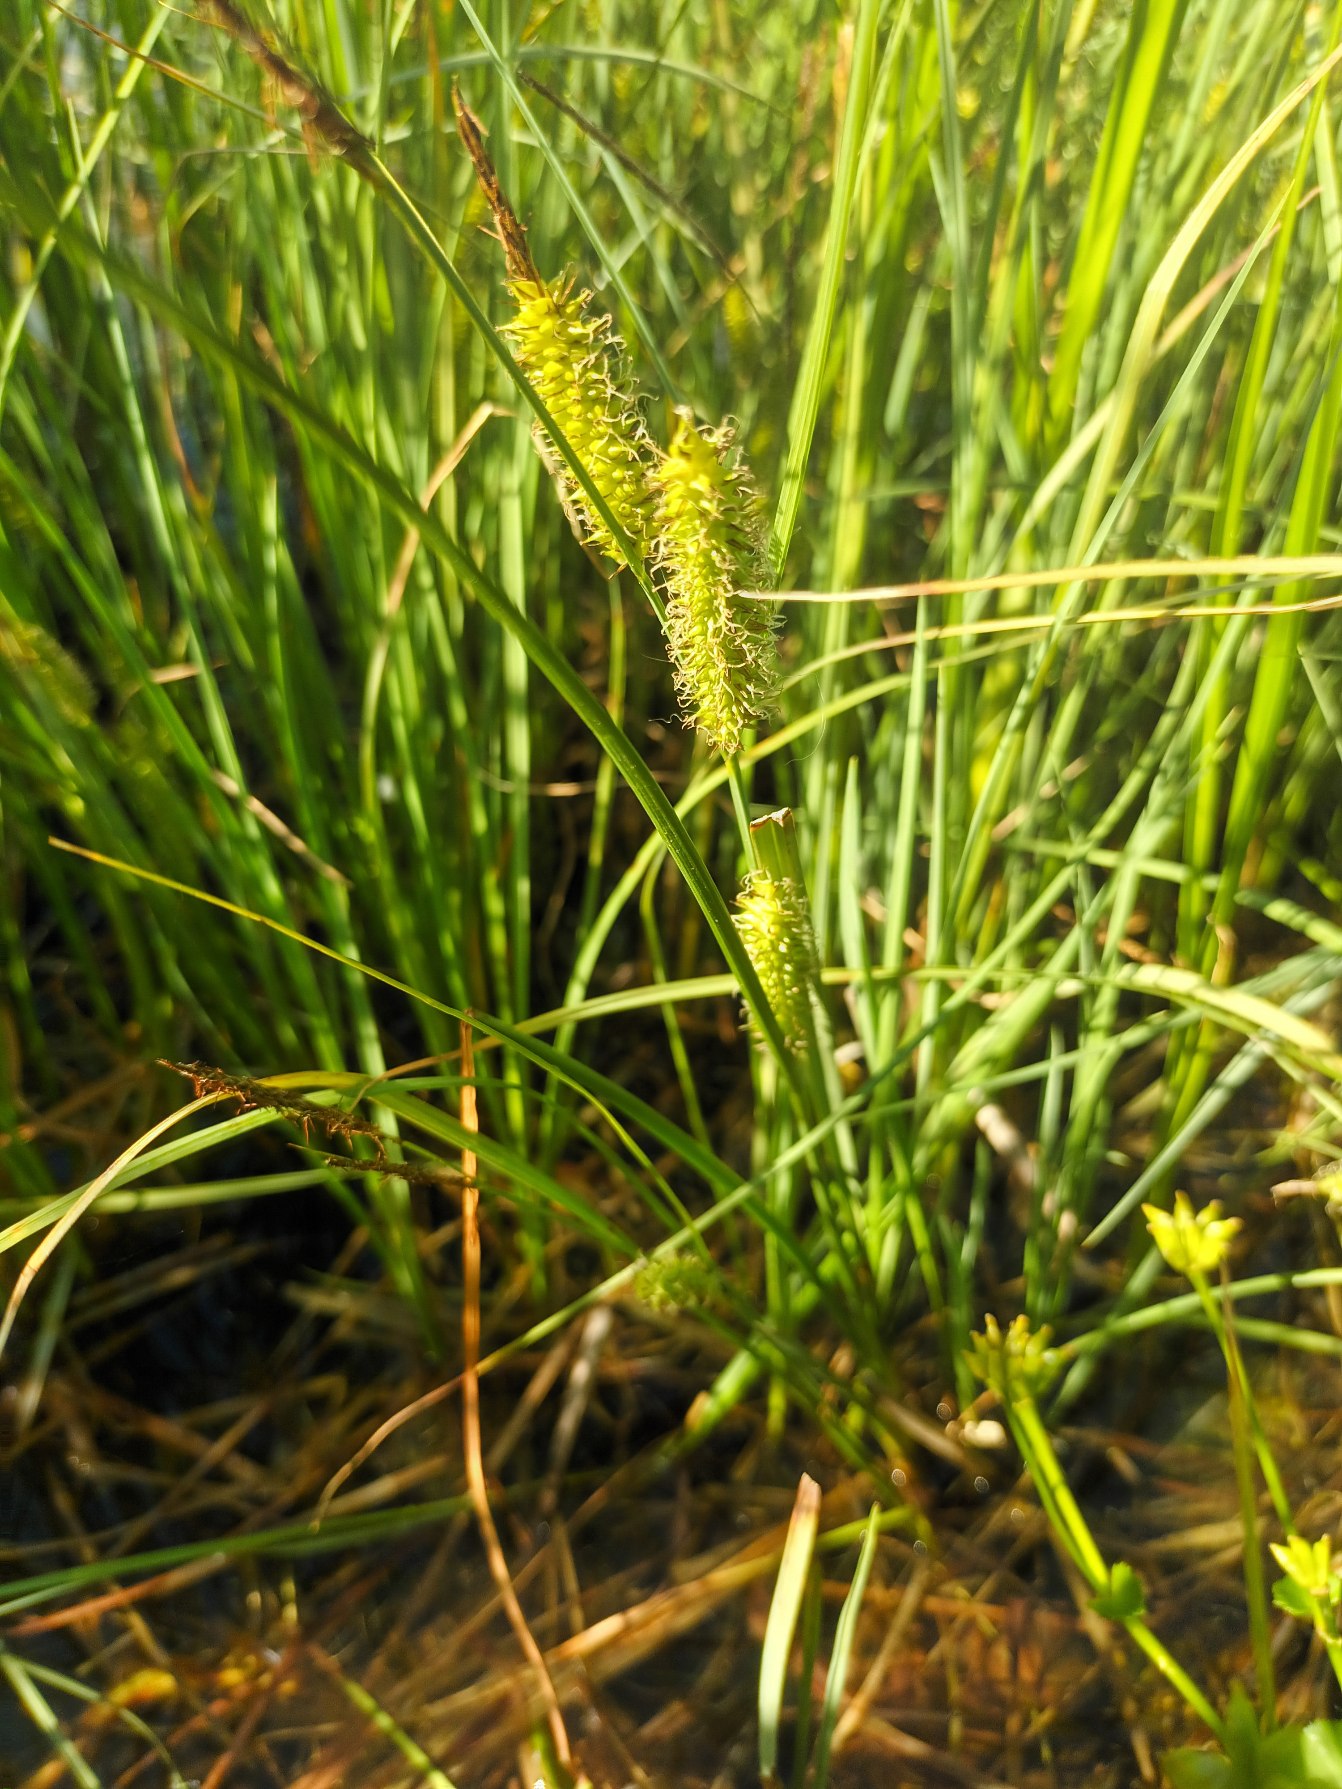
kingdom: Plantae
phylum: Tracheophyta
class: Liliopsida
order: Poales
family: Cyperaceae
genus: Carex
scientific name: Carex rostrata
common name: Næb-star
